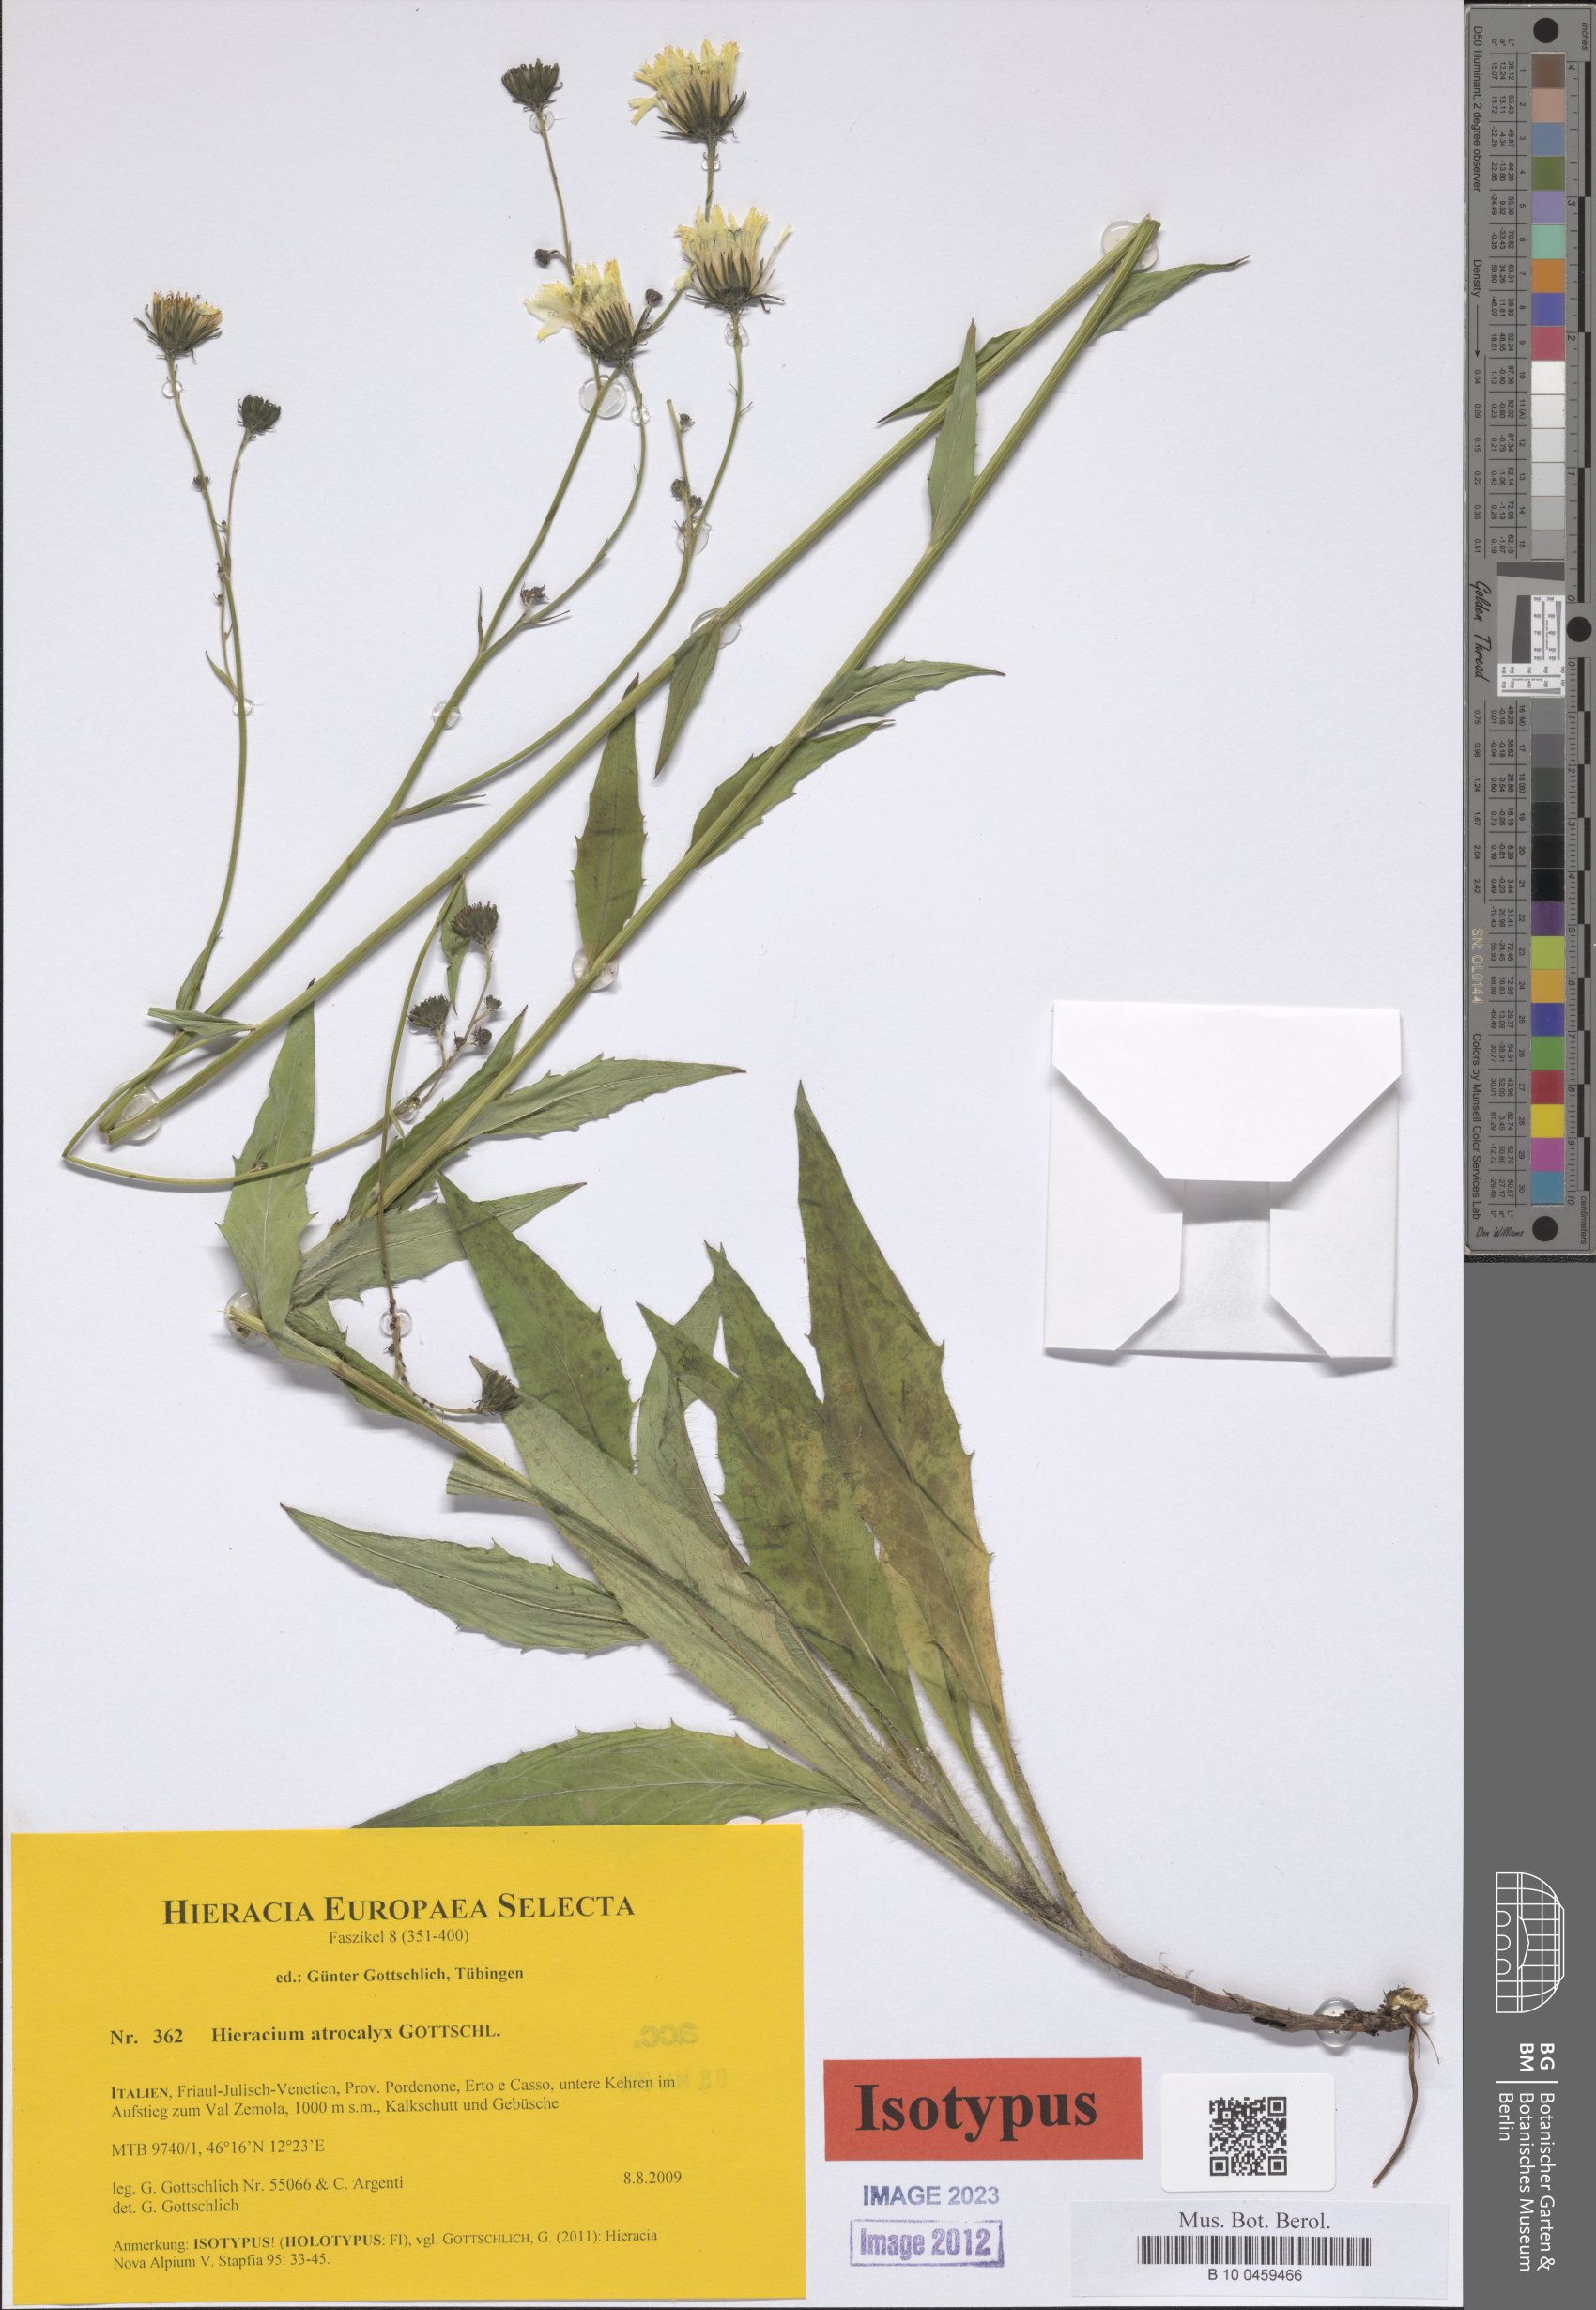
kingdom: Plantae
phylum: Tracheophyta
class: Magnoliopsida
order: Asterales
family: Asteraceae
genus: Hieracium
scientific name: Hieracium atrocalyx
